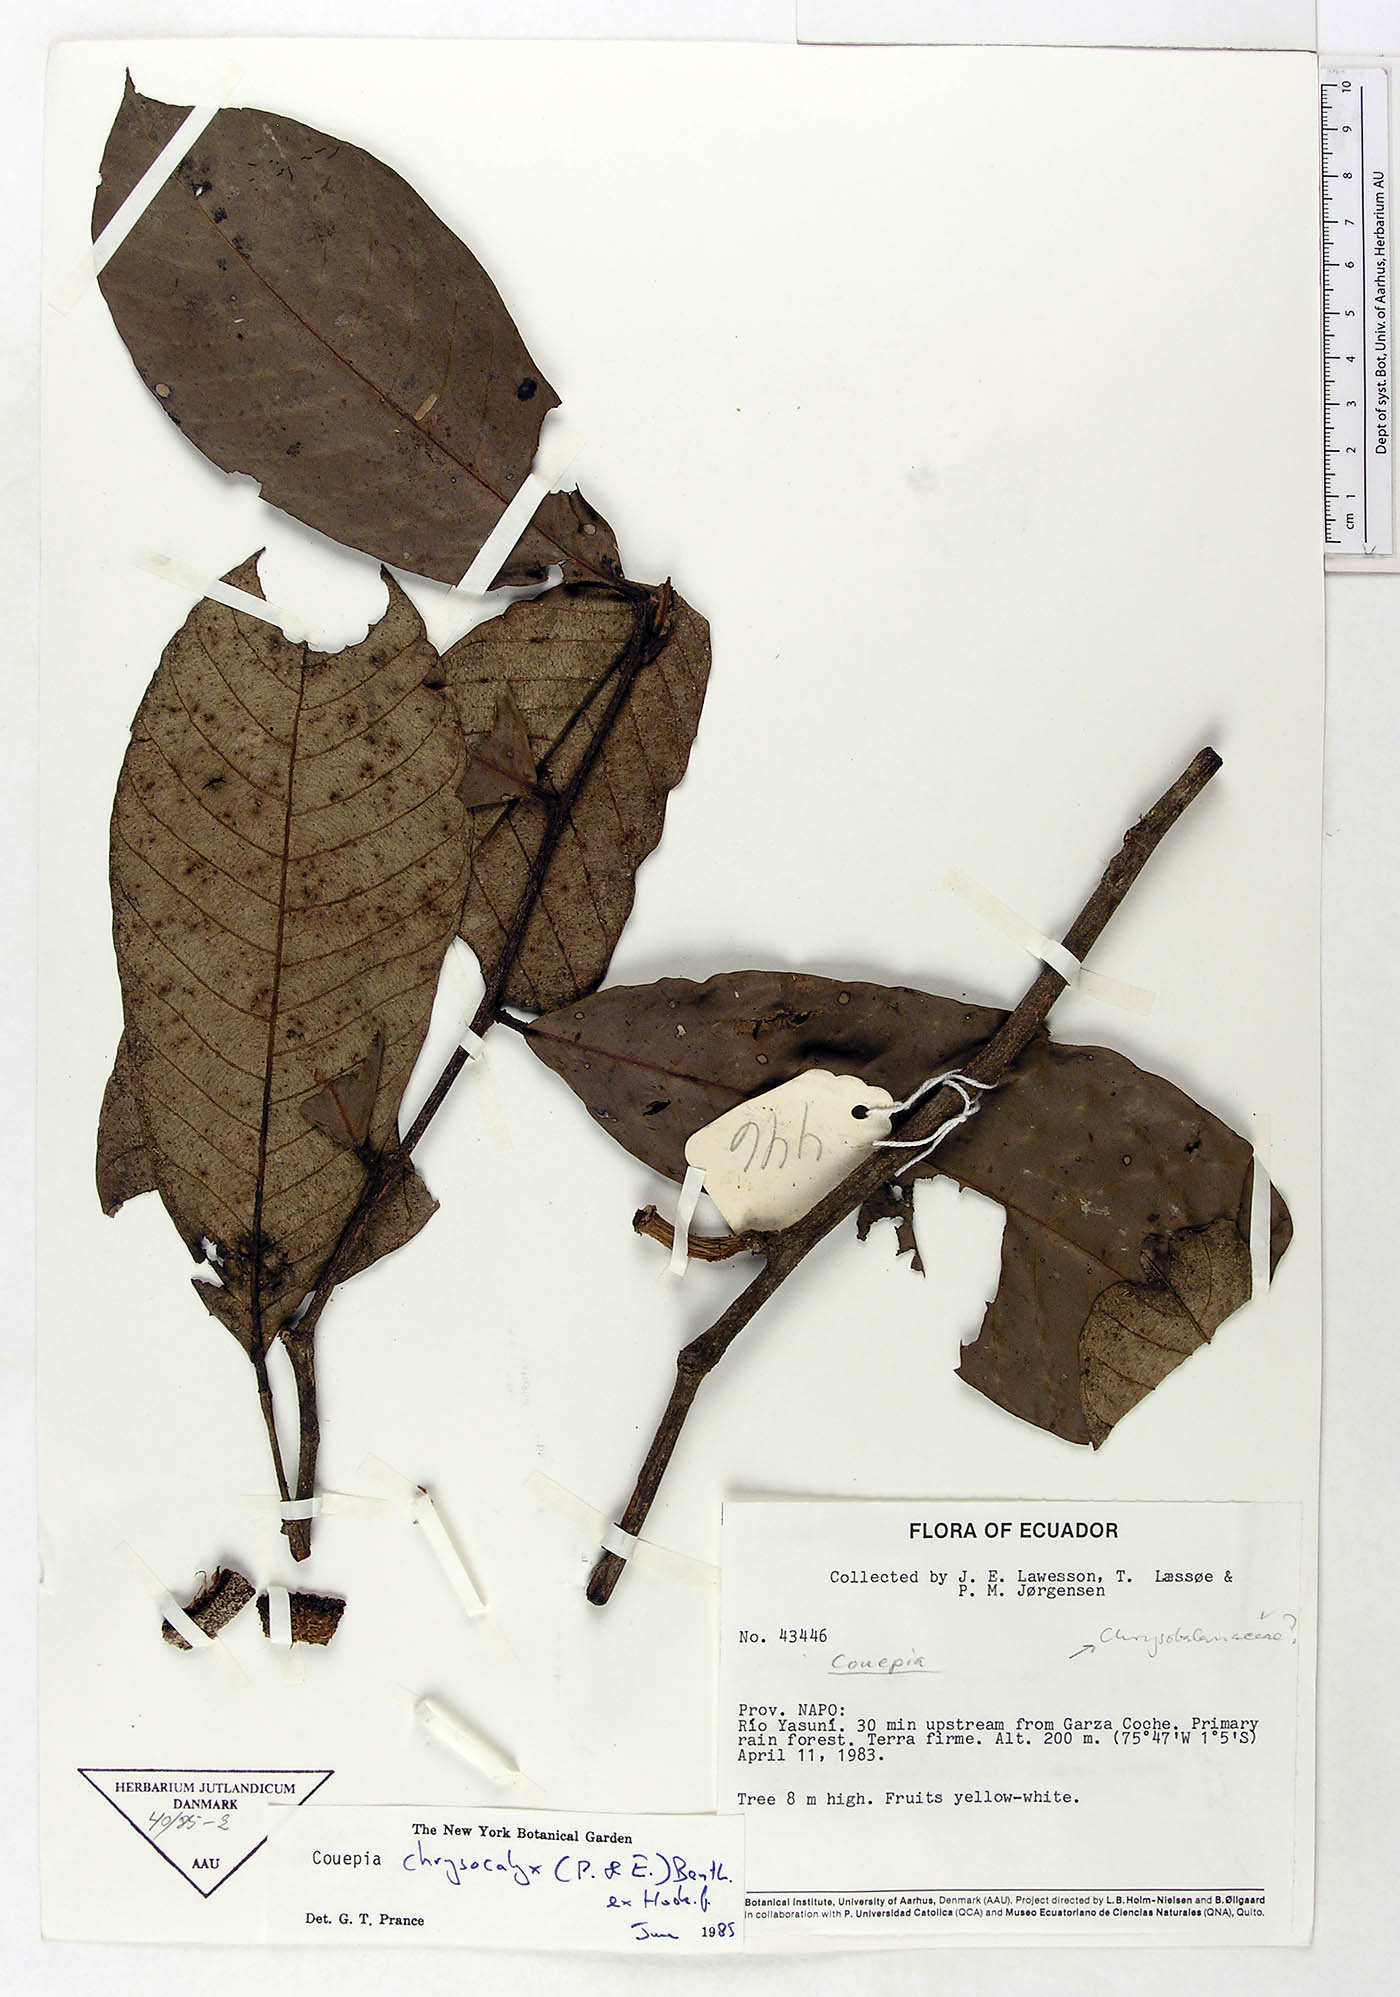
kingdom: Plantae
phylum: Tracheophyta
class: Magnoliopsida
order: Malpighiales
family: Chrysobalanaceae
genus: Couepia
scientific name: Couepia chrysocalyx
